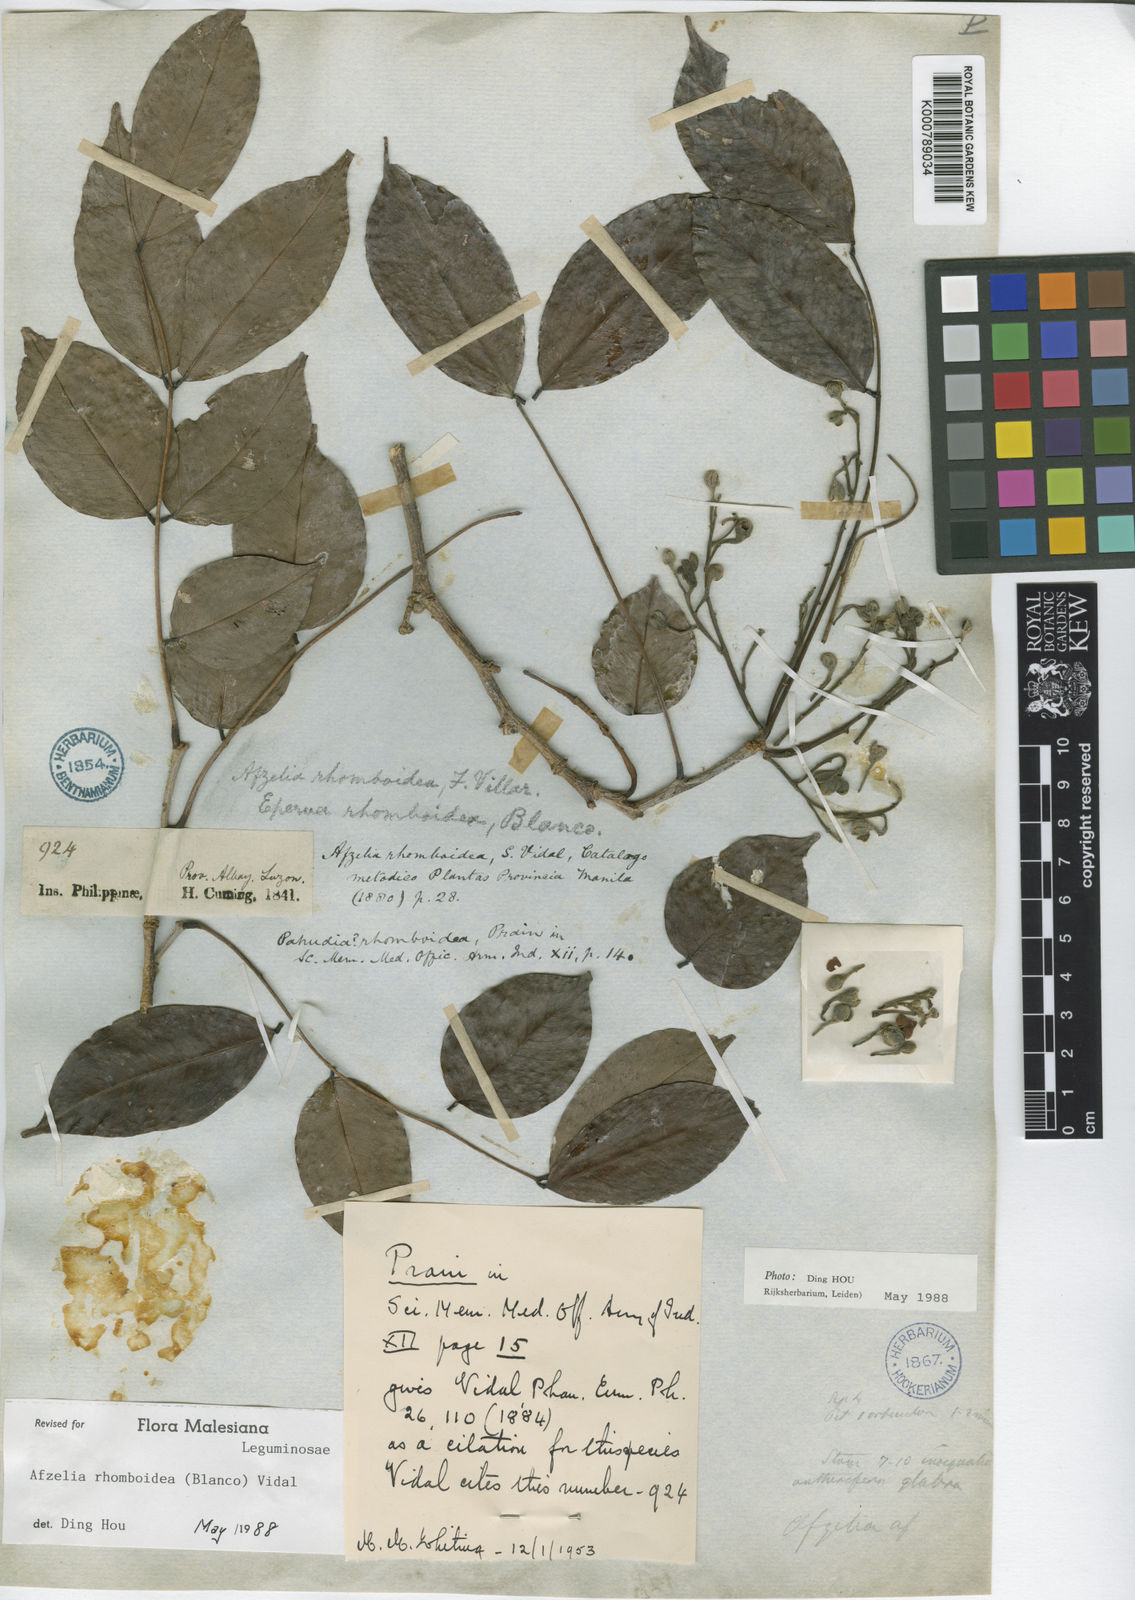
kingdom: Plantae
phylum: Tracheophyta
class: Magnoliopsida
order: Fabales
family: Fabaceae
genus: Afzelia
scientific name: Afzelia
